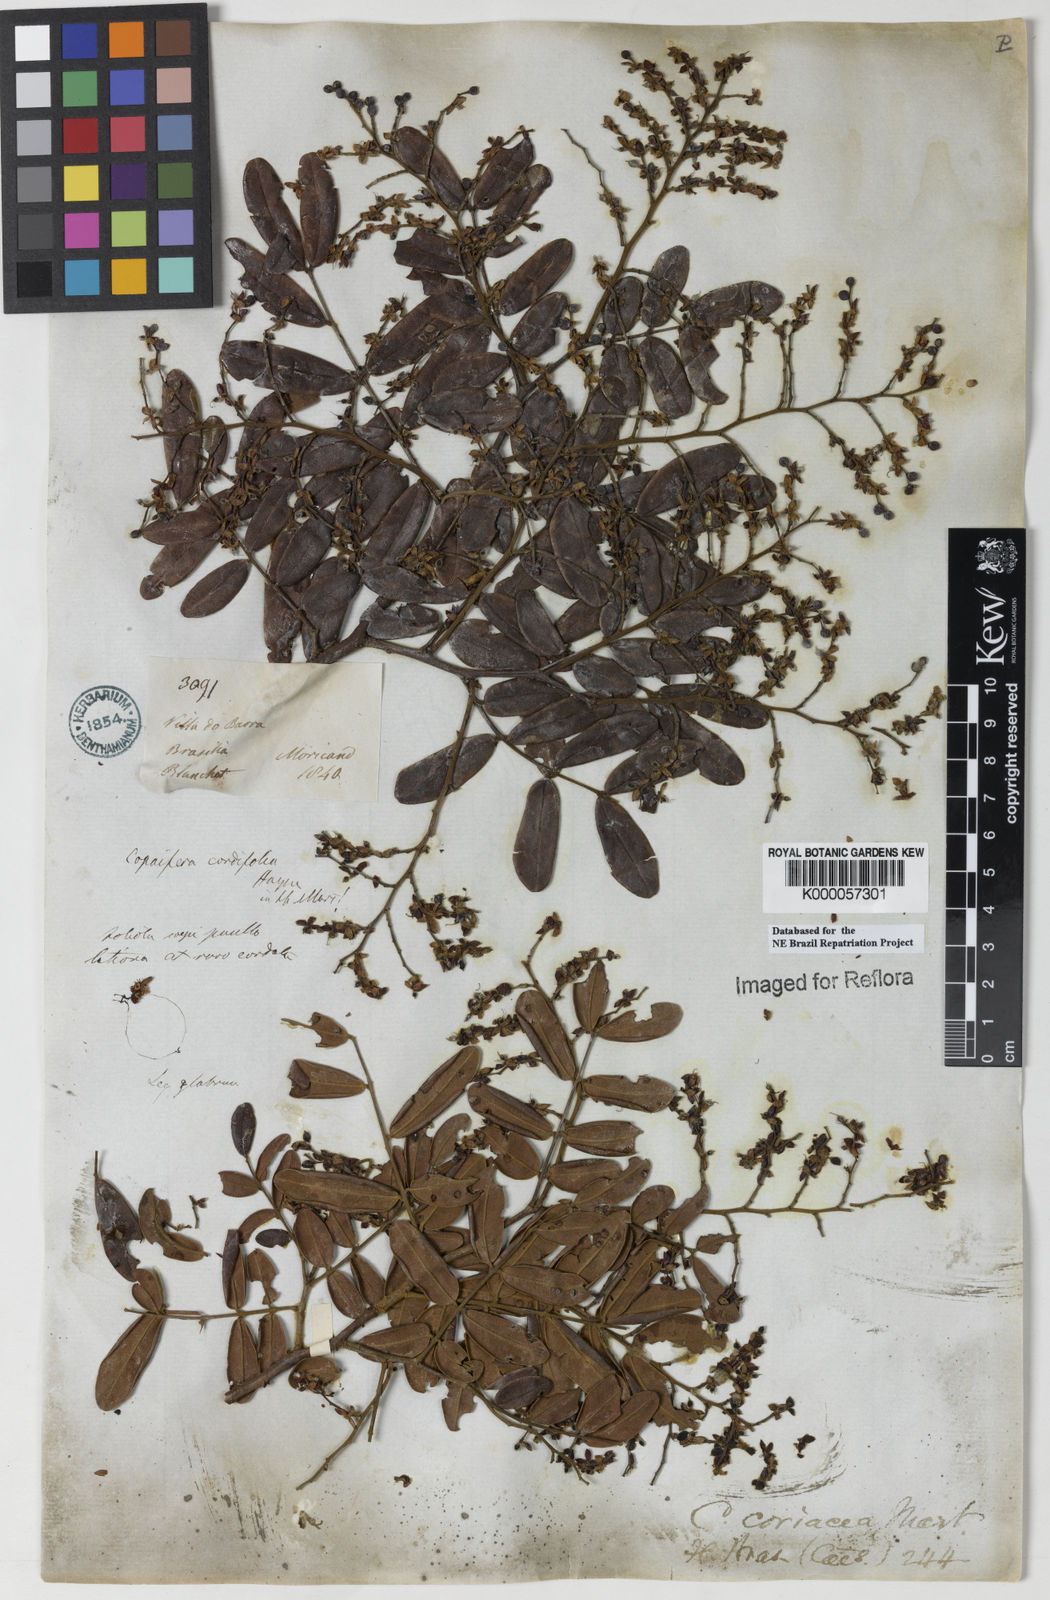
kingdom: Plantae
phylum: Tracheophyta
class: Magnoliopsida
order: Fabales
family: Fabaceae
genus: Copaifera
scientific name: Copaifera coriacea
